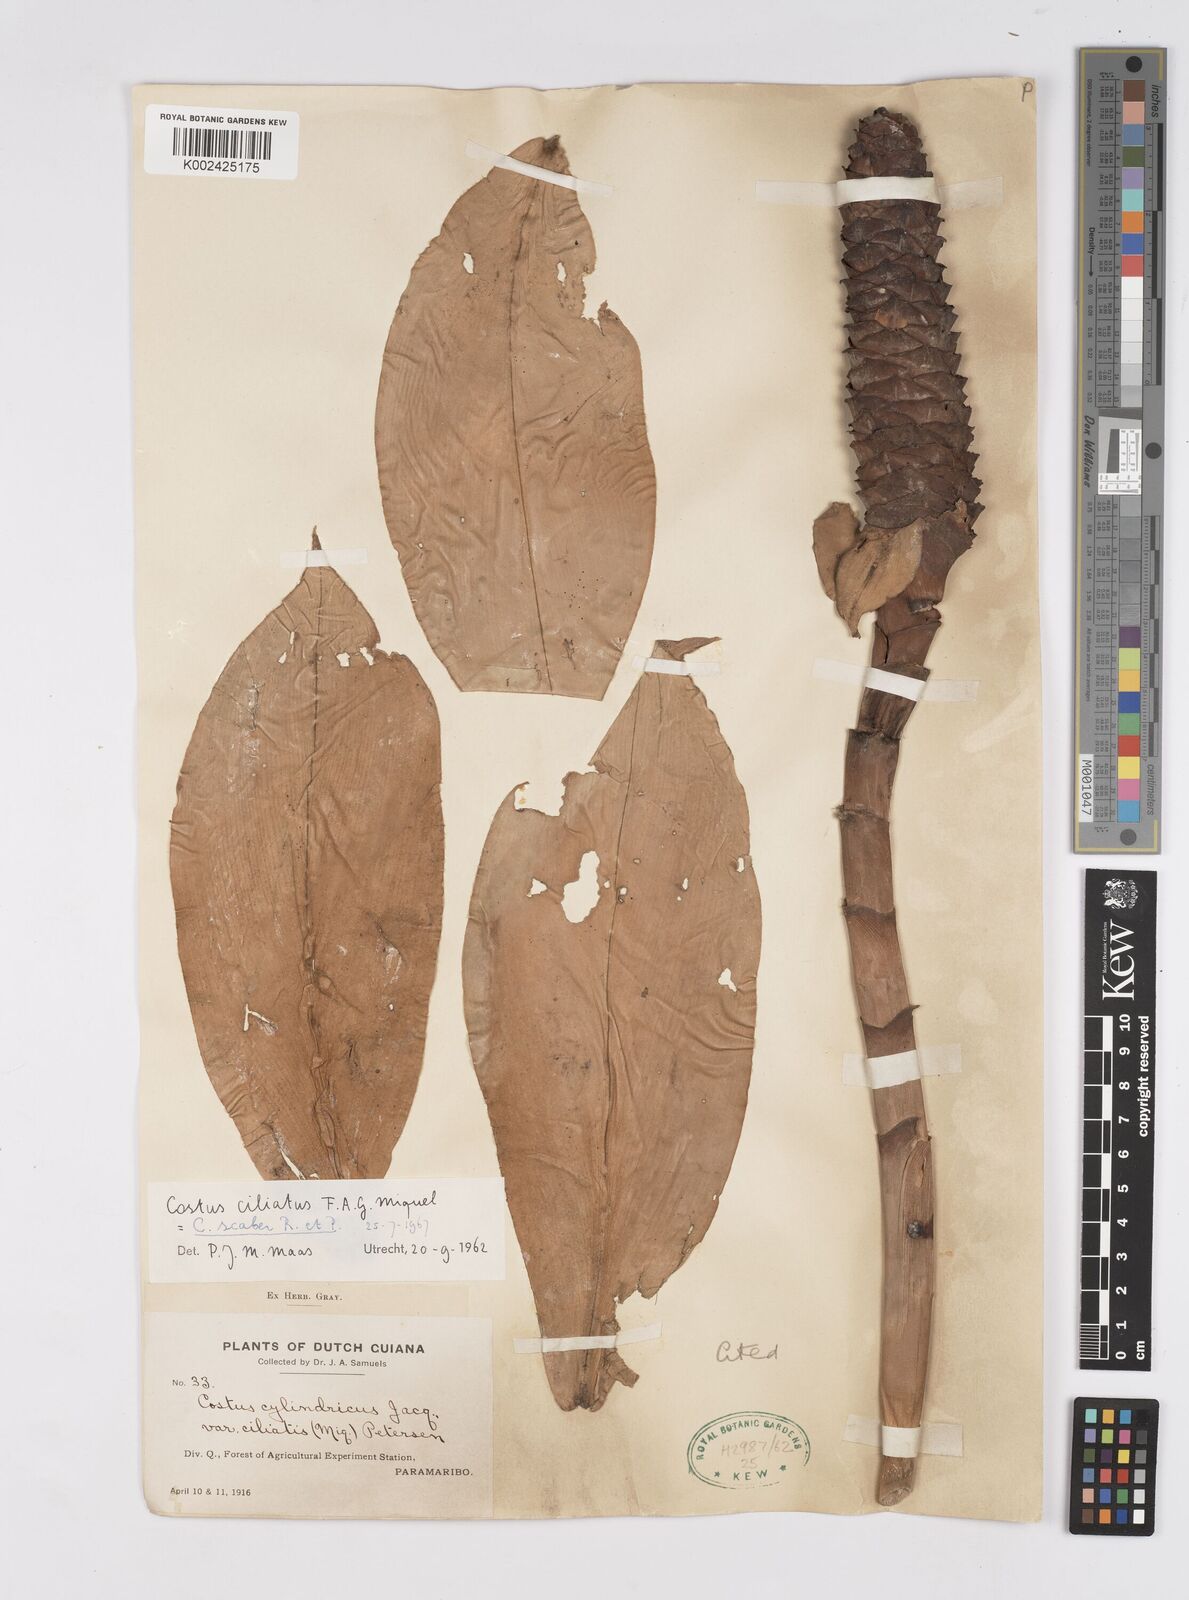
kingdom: Plantae
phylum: Tracheophyta
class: Liliopsida
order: Zingiberales
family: Costaceae
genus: Costus
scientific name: Costus scaber
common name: Spiral head ginger
